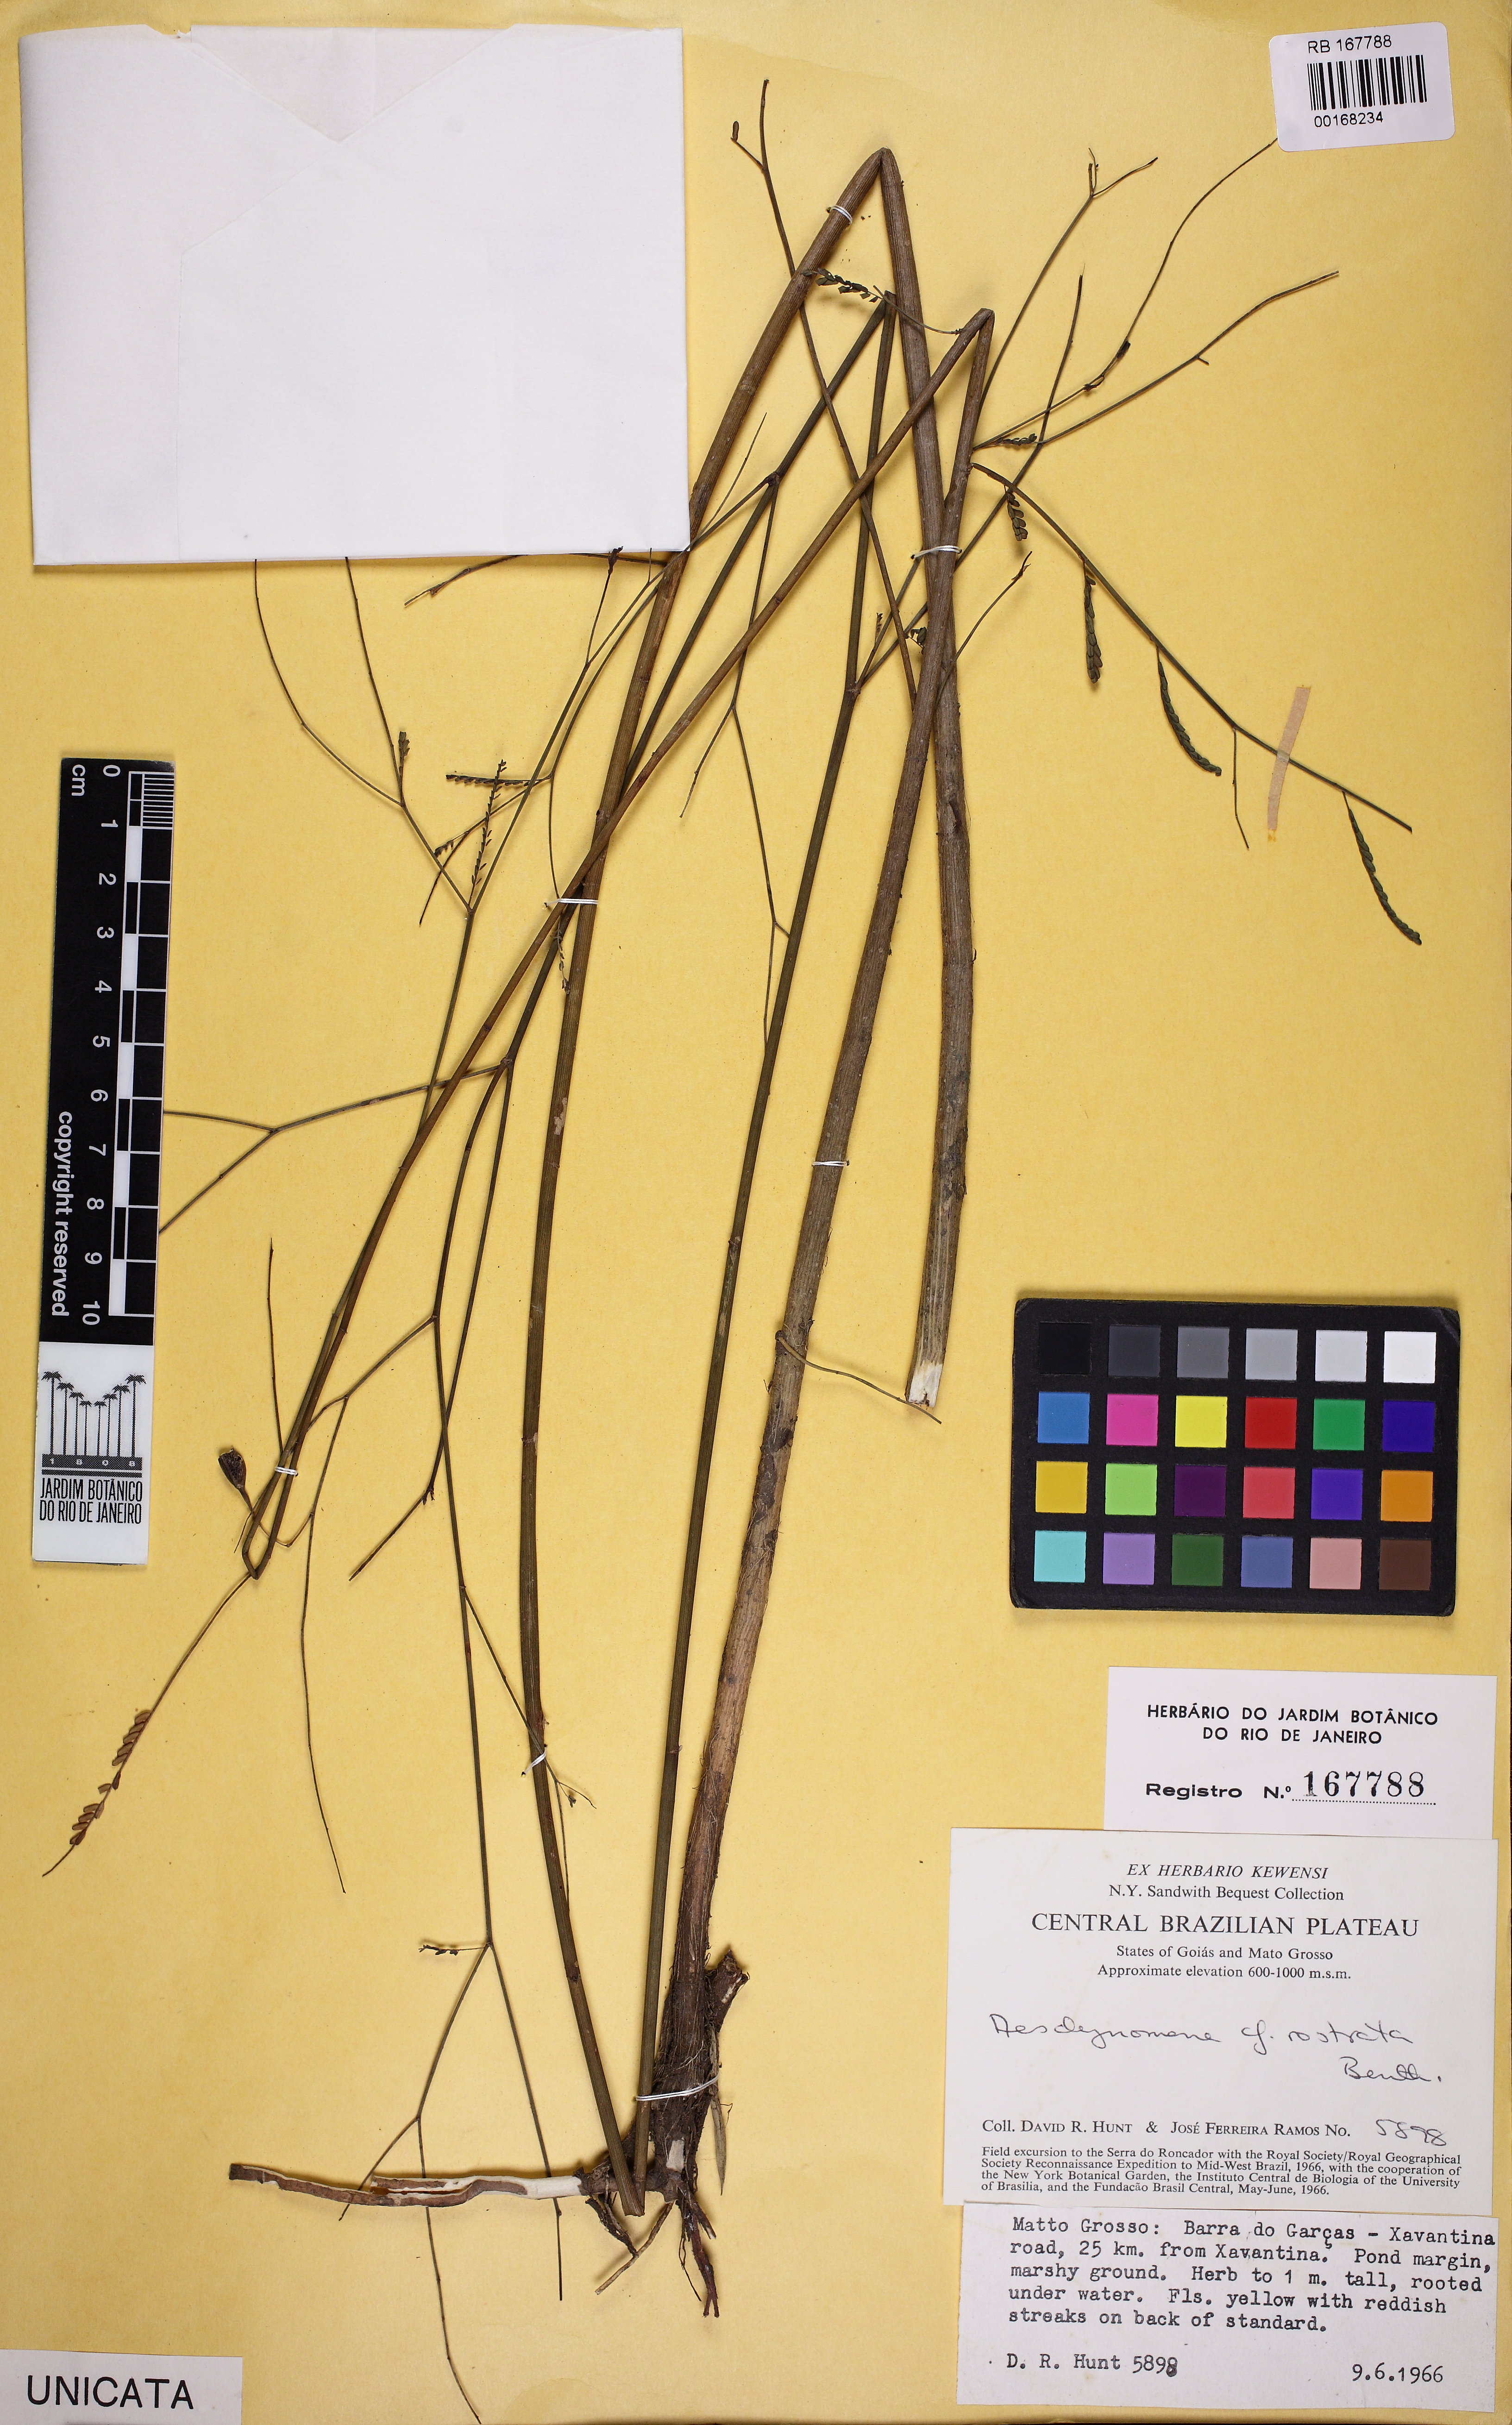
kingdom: Plantae
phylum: Tracheophyta
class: Magnoliopsida
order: Fabales
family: Fabaceae
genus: Aeschynomene
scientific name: Aeschynomene rostrata
